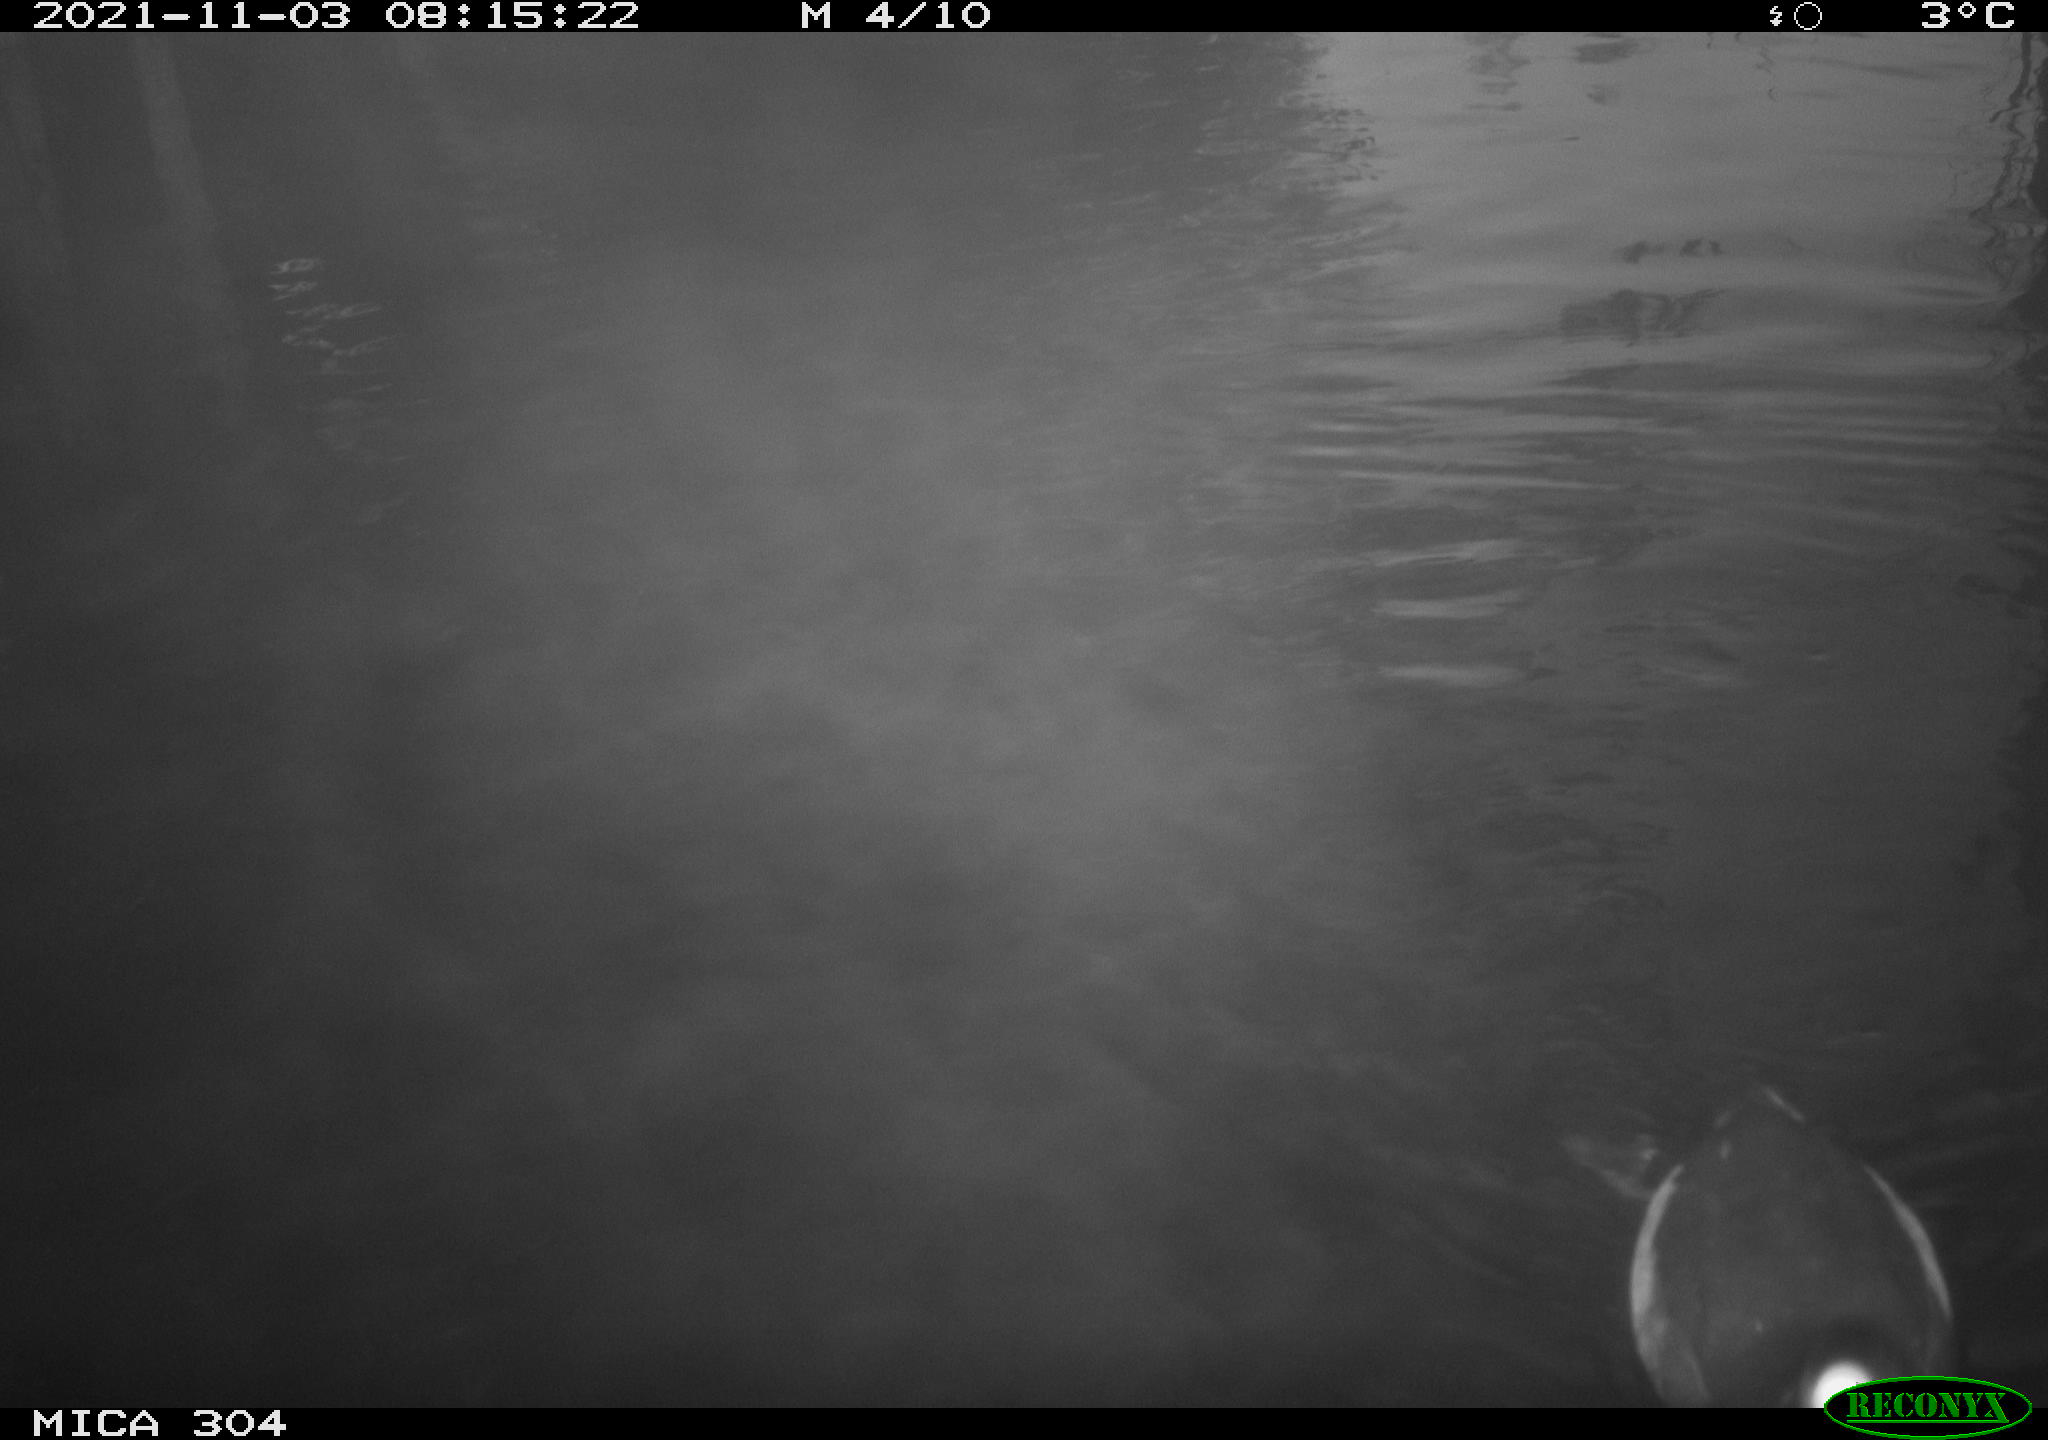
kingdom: Animalia
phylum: Chordata
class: Aves
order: Gruiformes
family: Rallidae
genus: Gallinula
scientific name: Gallinula chloropus
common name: Common moorhen
